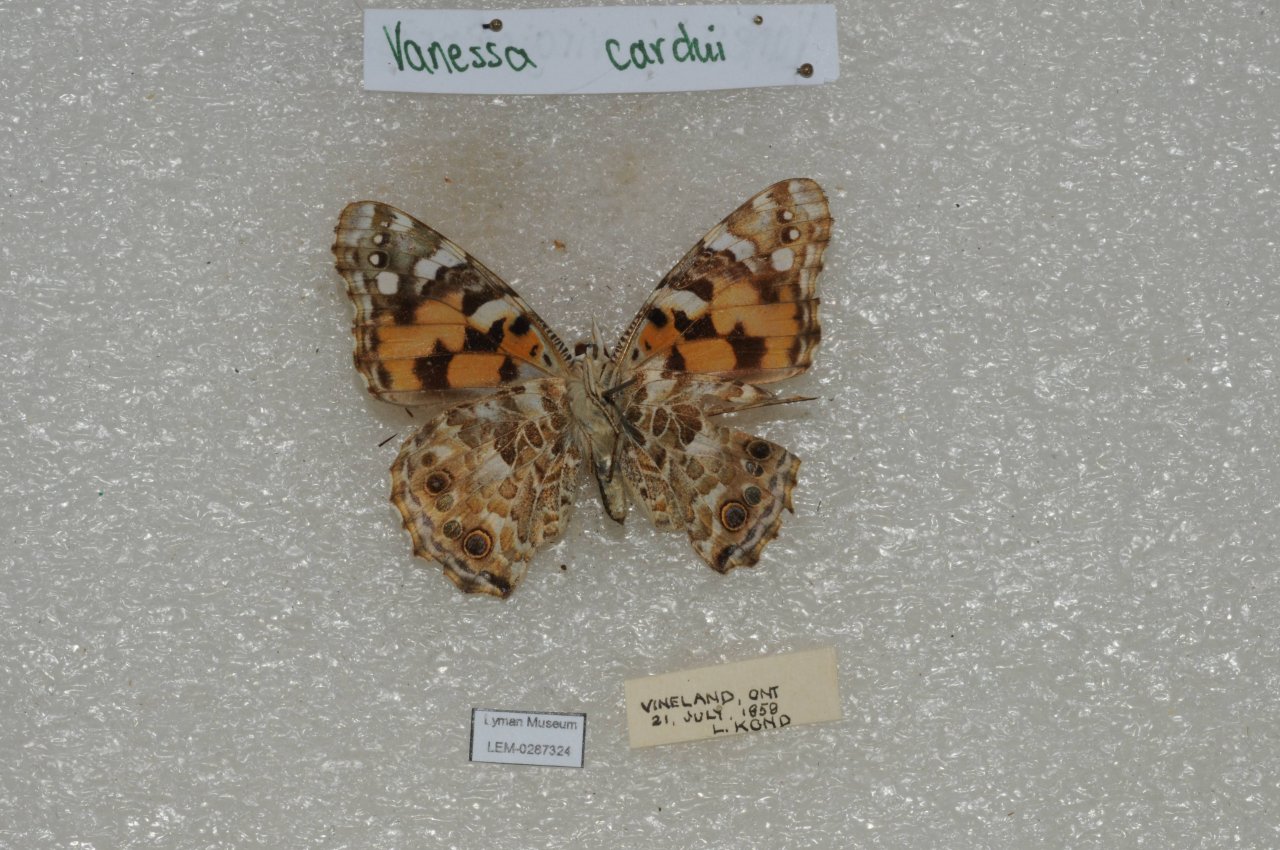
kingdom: Animalia
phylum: Arthropoda
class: Insecta
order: Lepidoptera
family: Nymphalidae
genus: Vanessa
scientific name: Vanessa cardui
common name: Painted Lady
